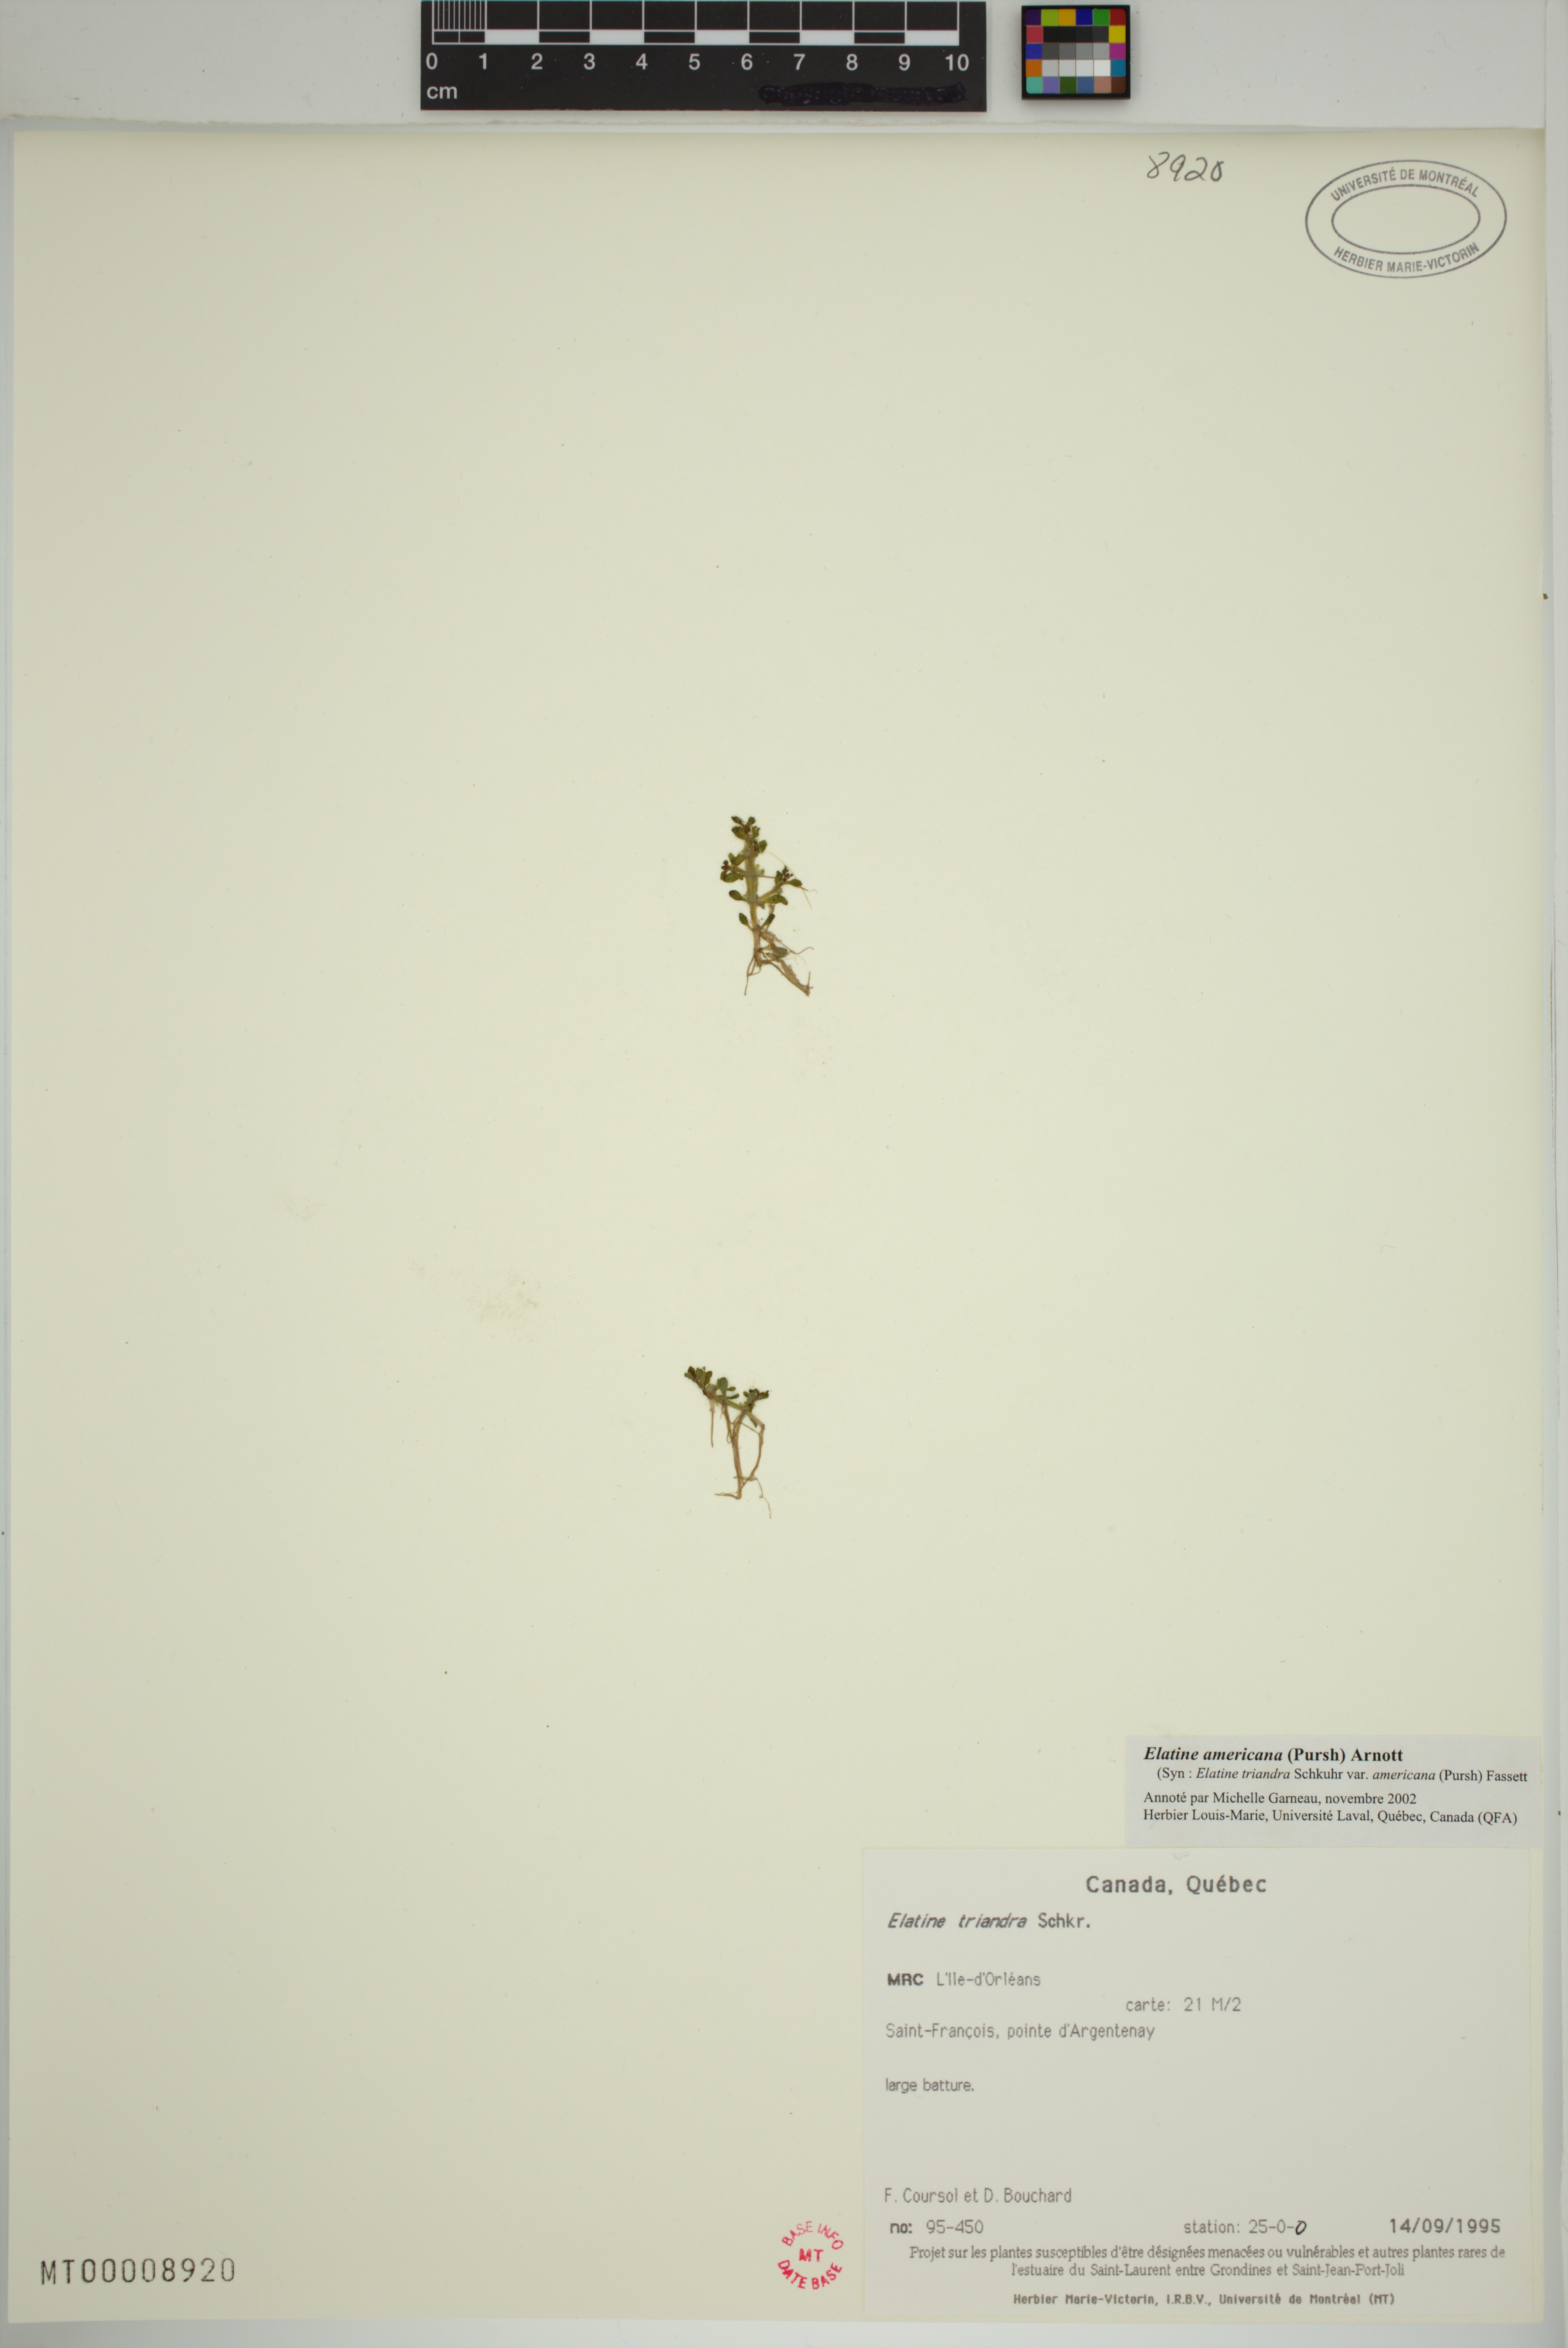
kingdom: Plantae
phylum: Tracheophyta
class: Magnoliopsida
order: Malpighiales
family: Elatinaceae
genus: Elatine
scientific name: Elatine americana
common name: American waterwort
